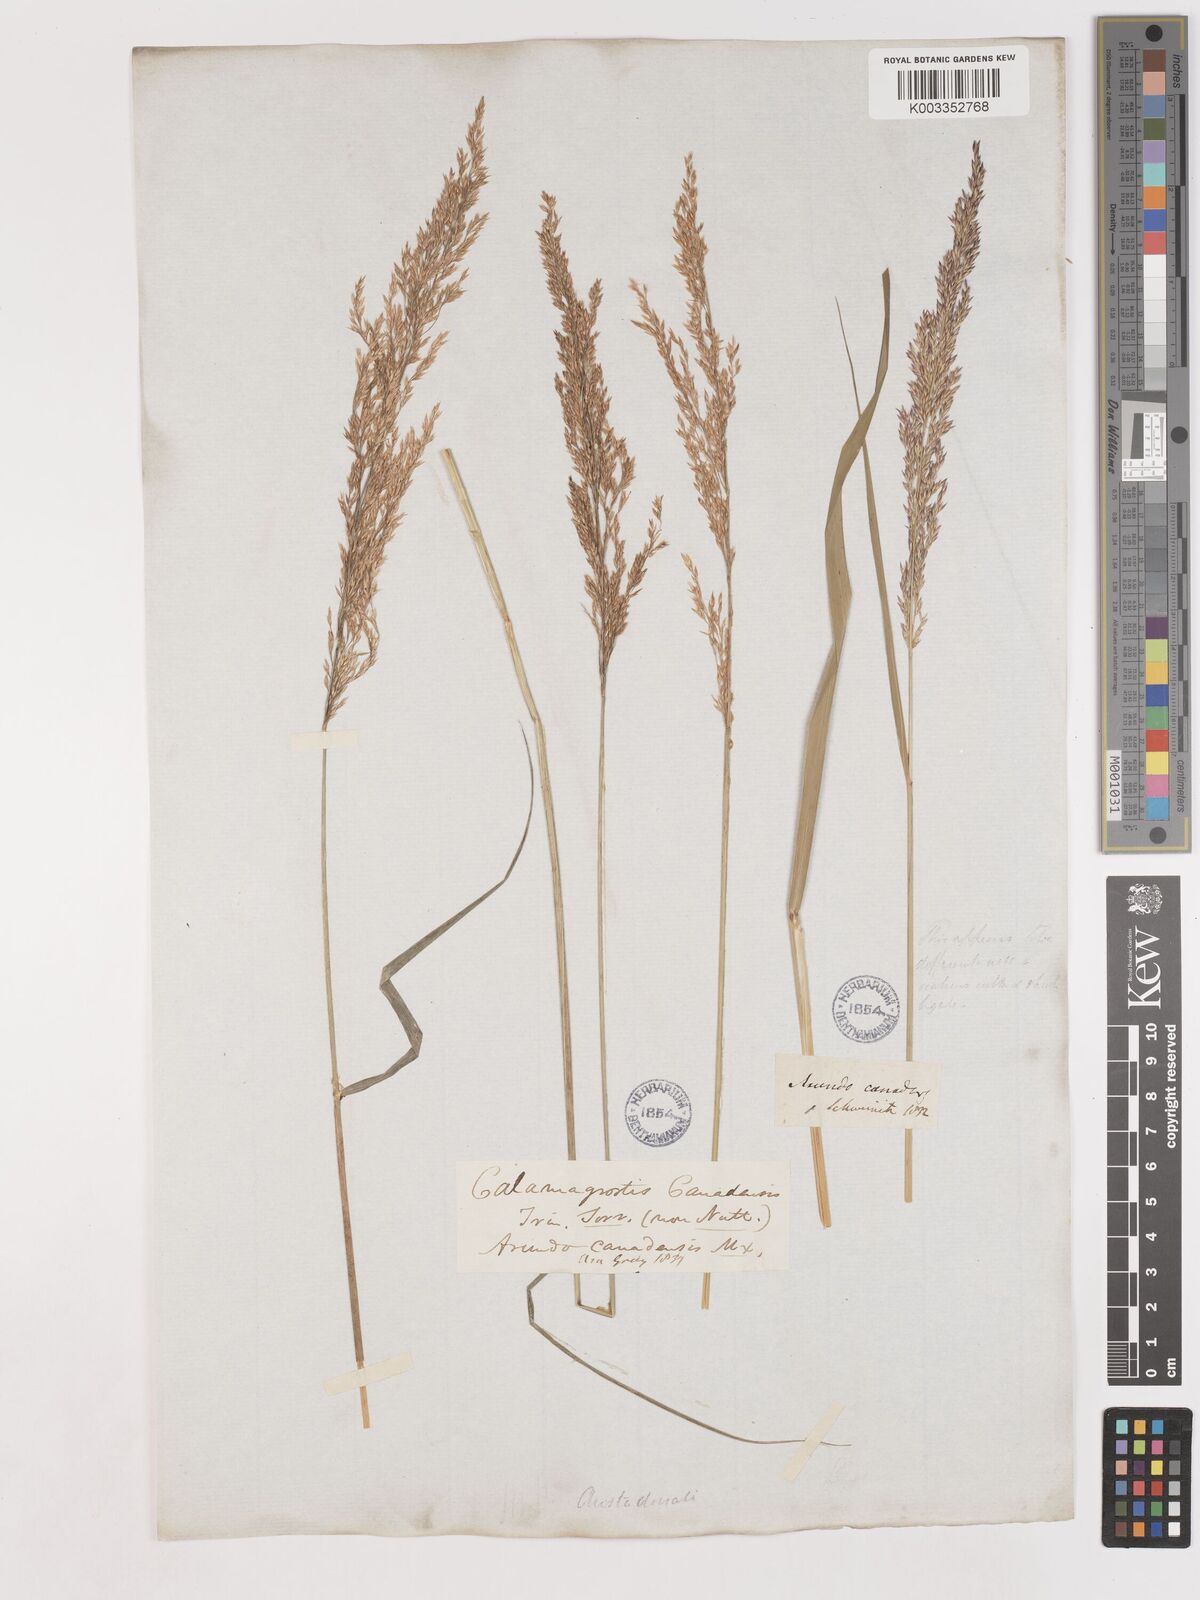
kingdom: Plantae
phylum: Tracheophyta
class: Liliopsida
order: Poales
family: Poaceae
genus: Calamagrostis
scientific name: Calamagrostis canadensis
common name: Canada bluejoint
